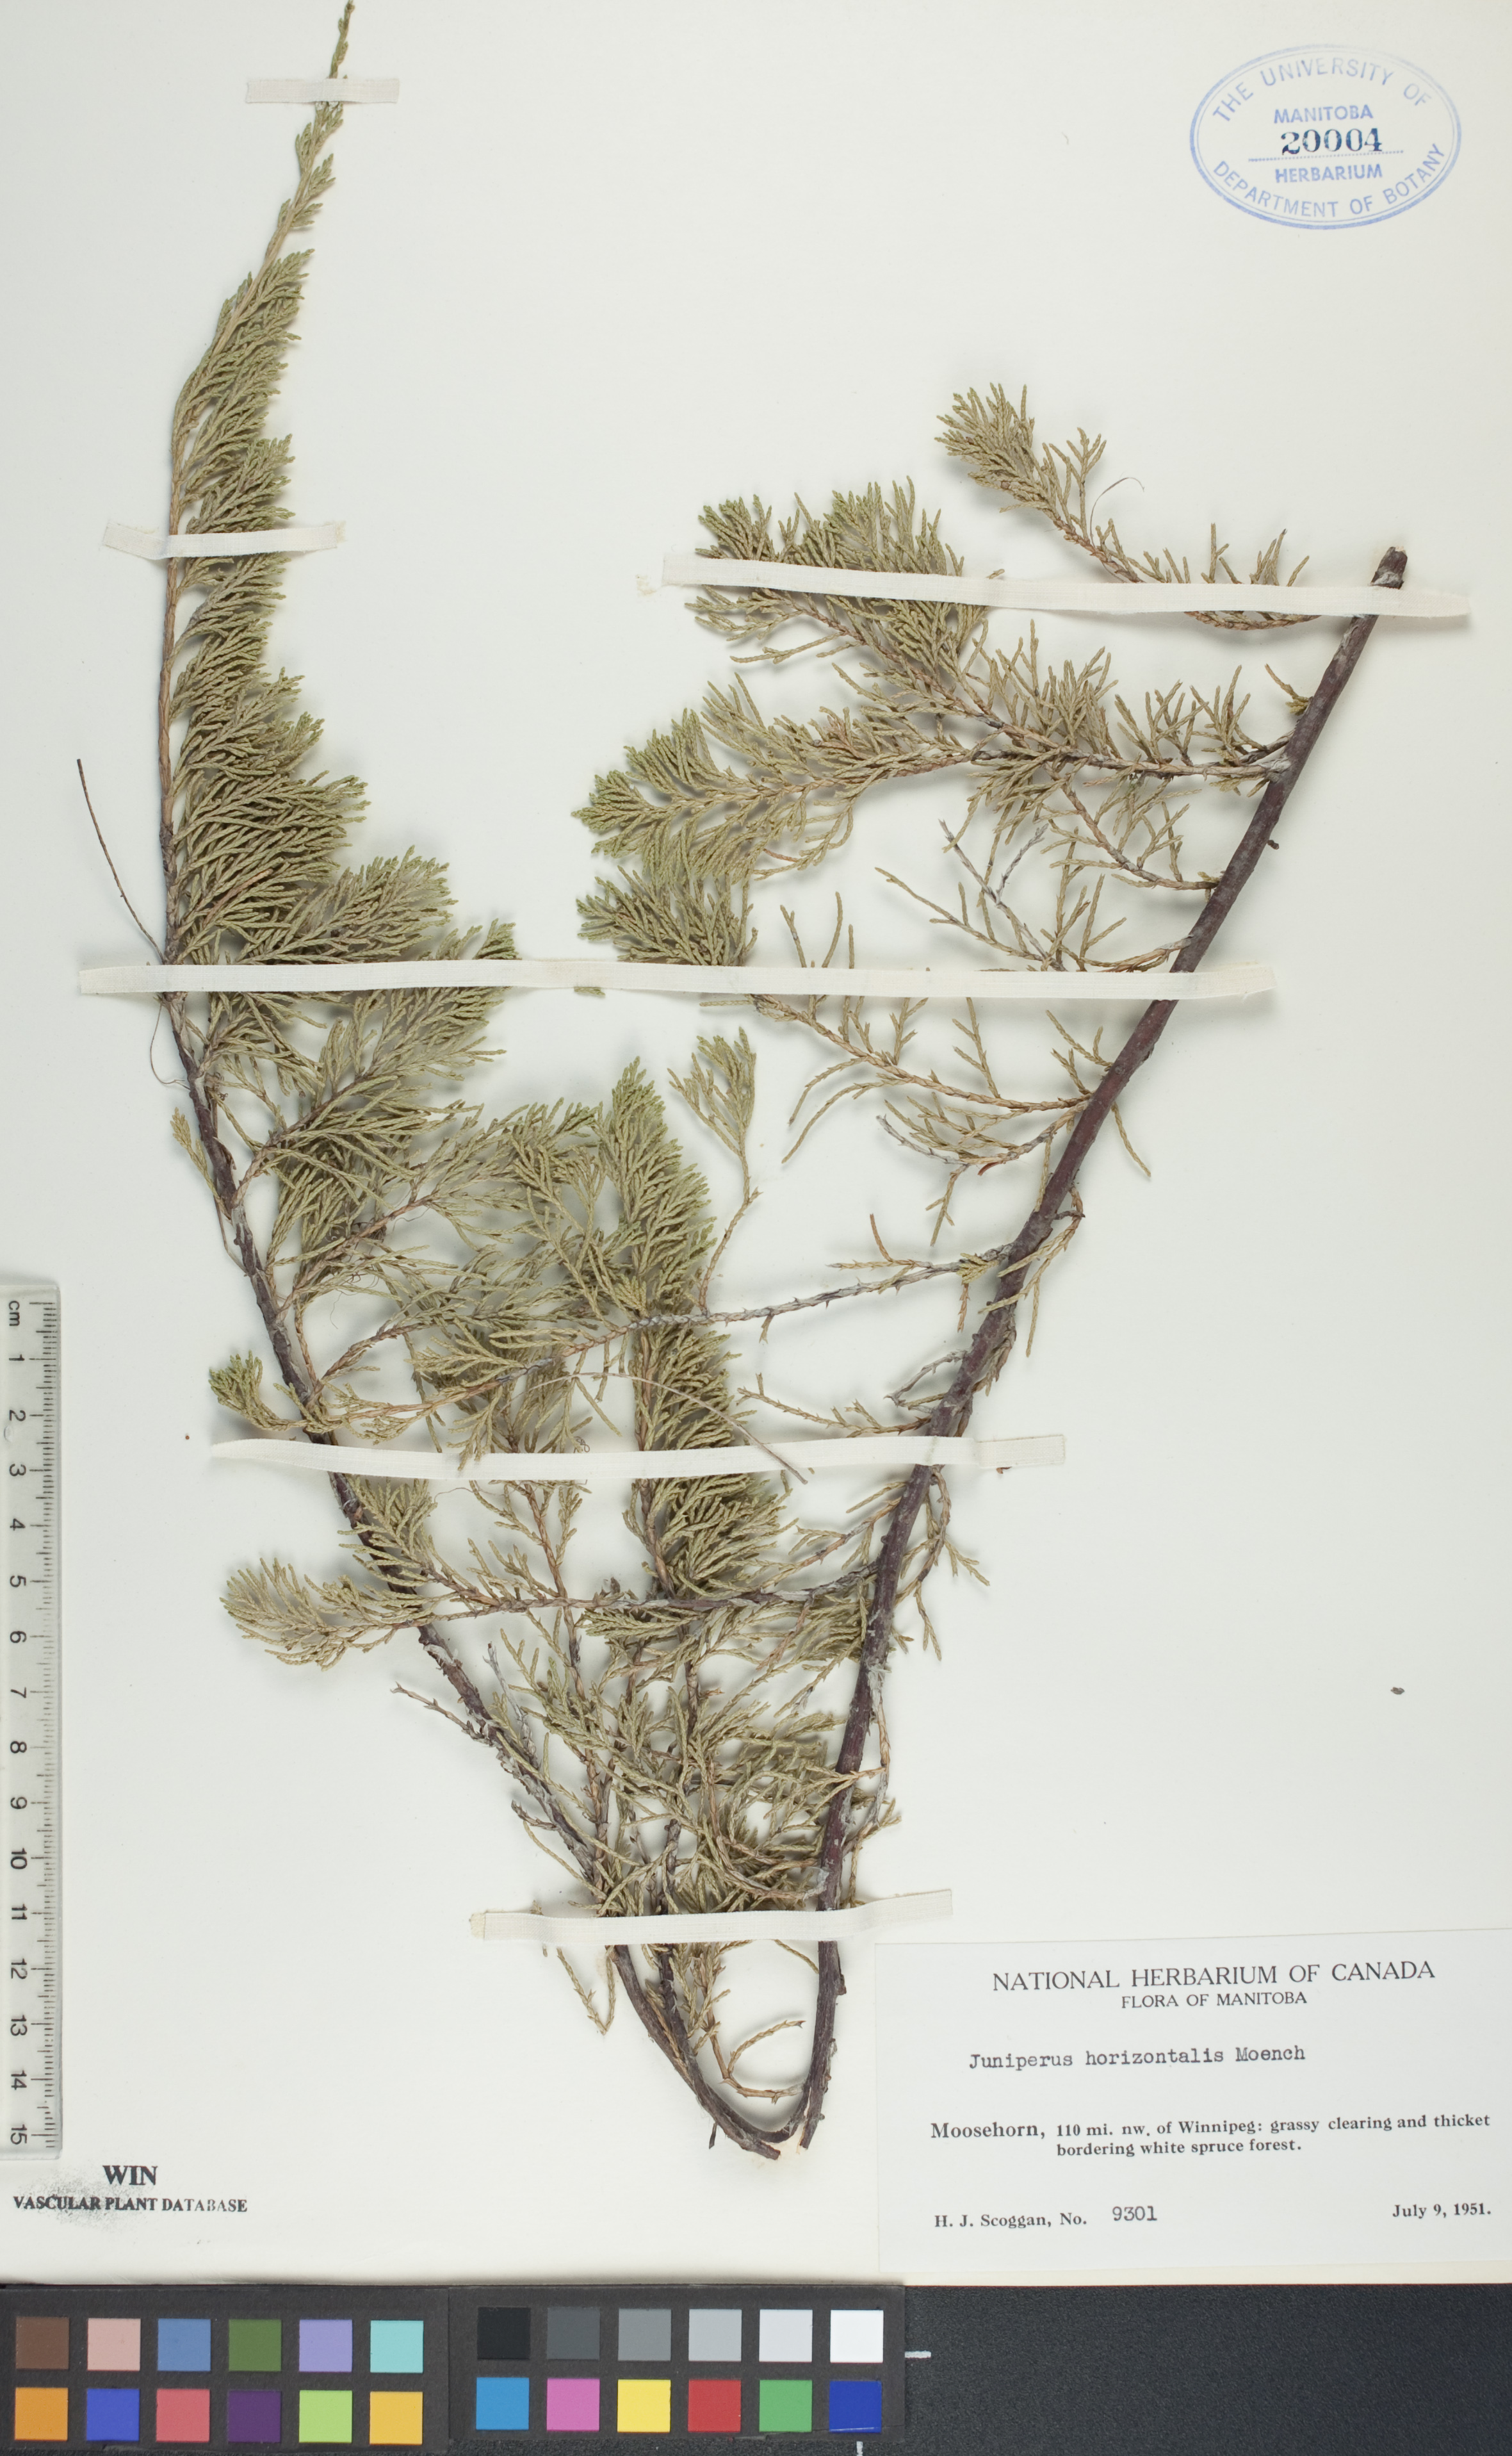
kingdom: Plantae
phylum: Tracheophyta
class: Pinopsida
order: Pinales
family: Cupressaceae
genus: Juniperus
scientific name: Juniperus horizontalis
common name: Creeping juniper
